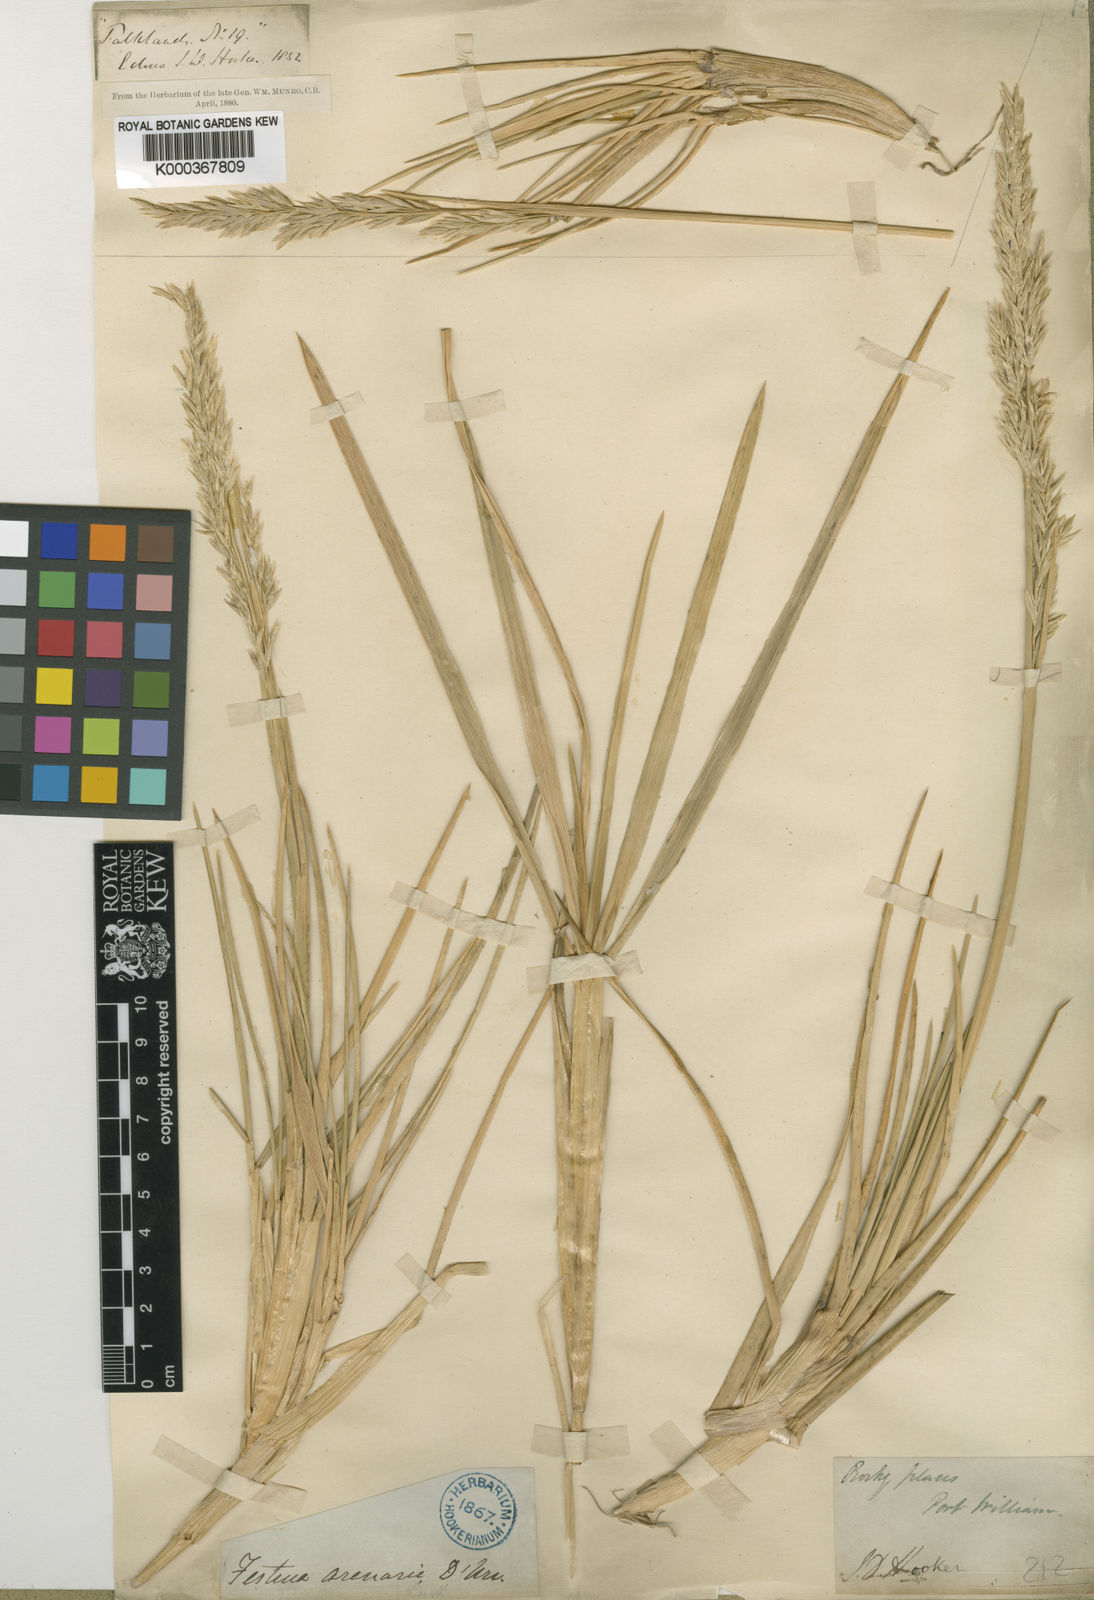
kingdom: Plantae
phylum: Tracheophyta
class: Liliopsida
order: Poales
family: Poaceae
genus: Nicoraepoa
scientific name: Nicoraepoa chonotica
